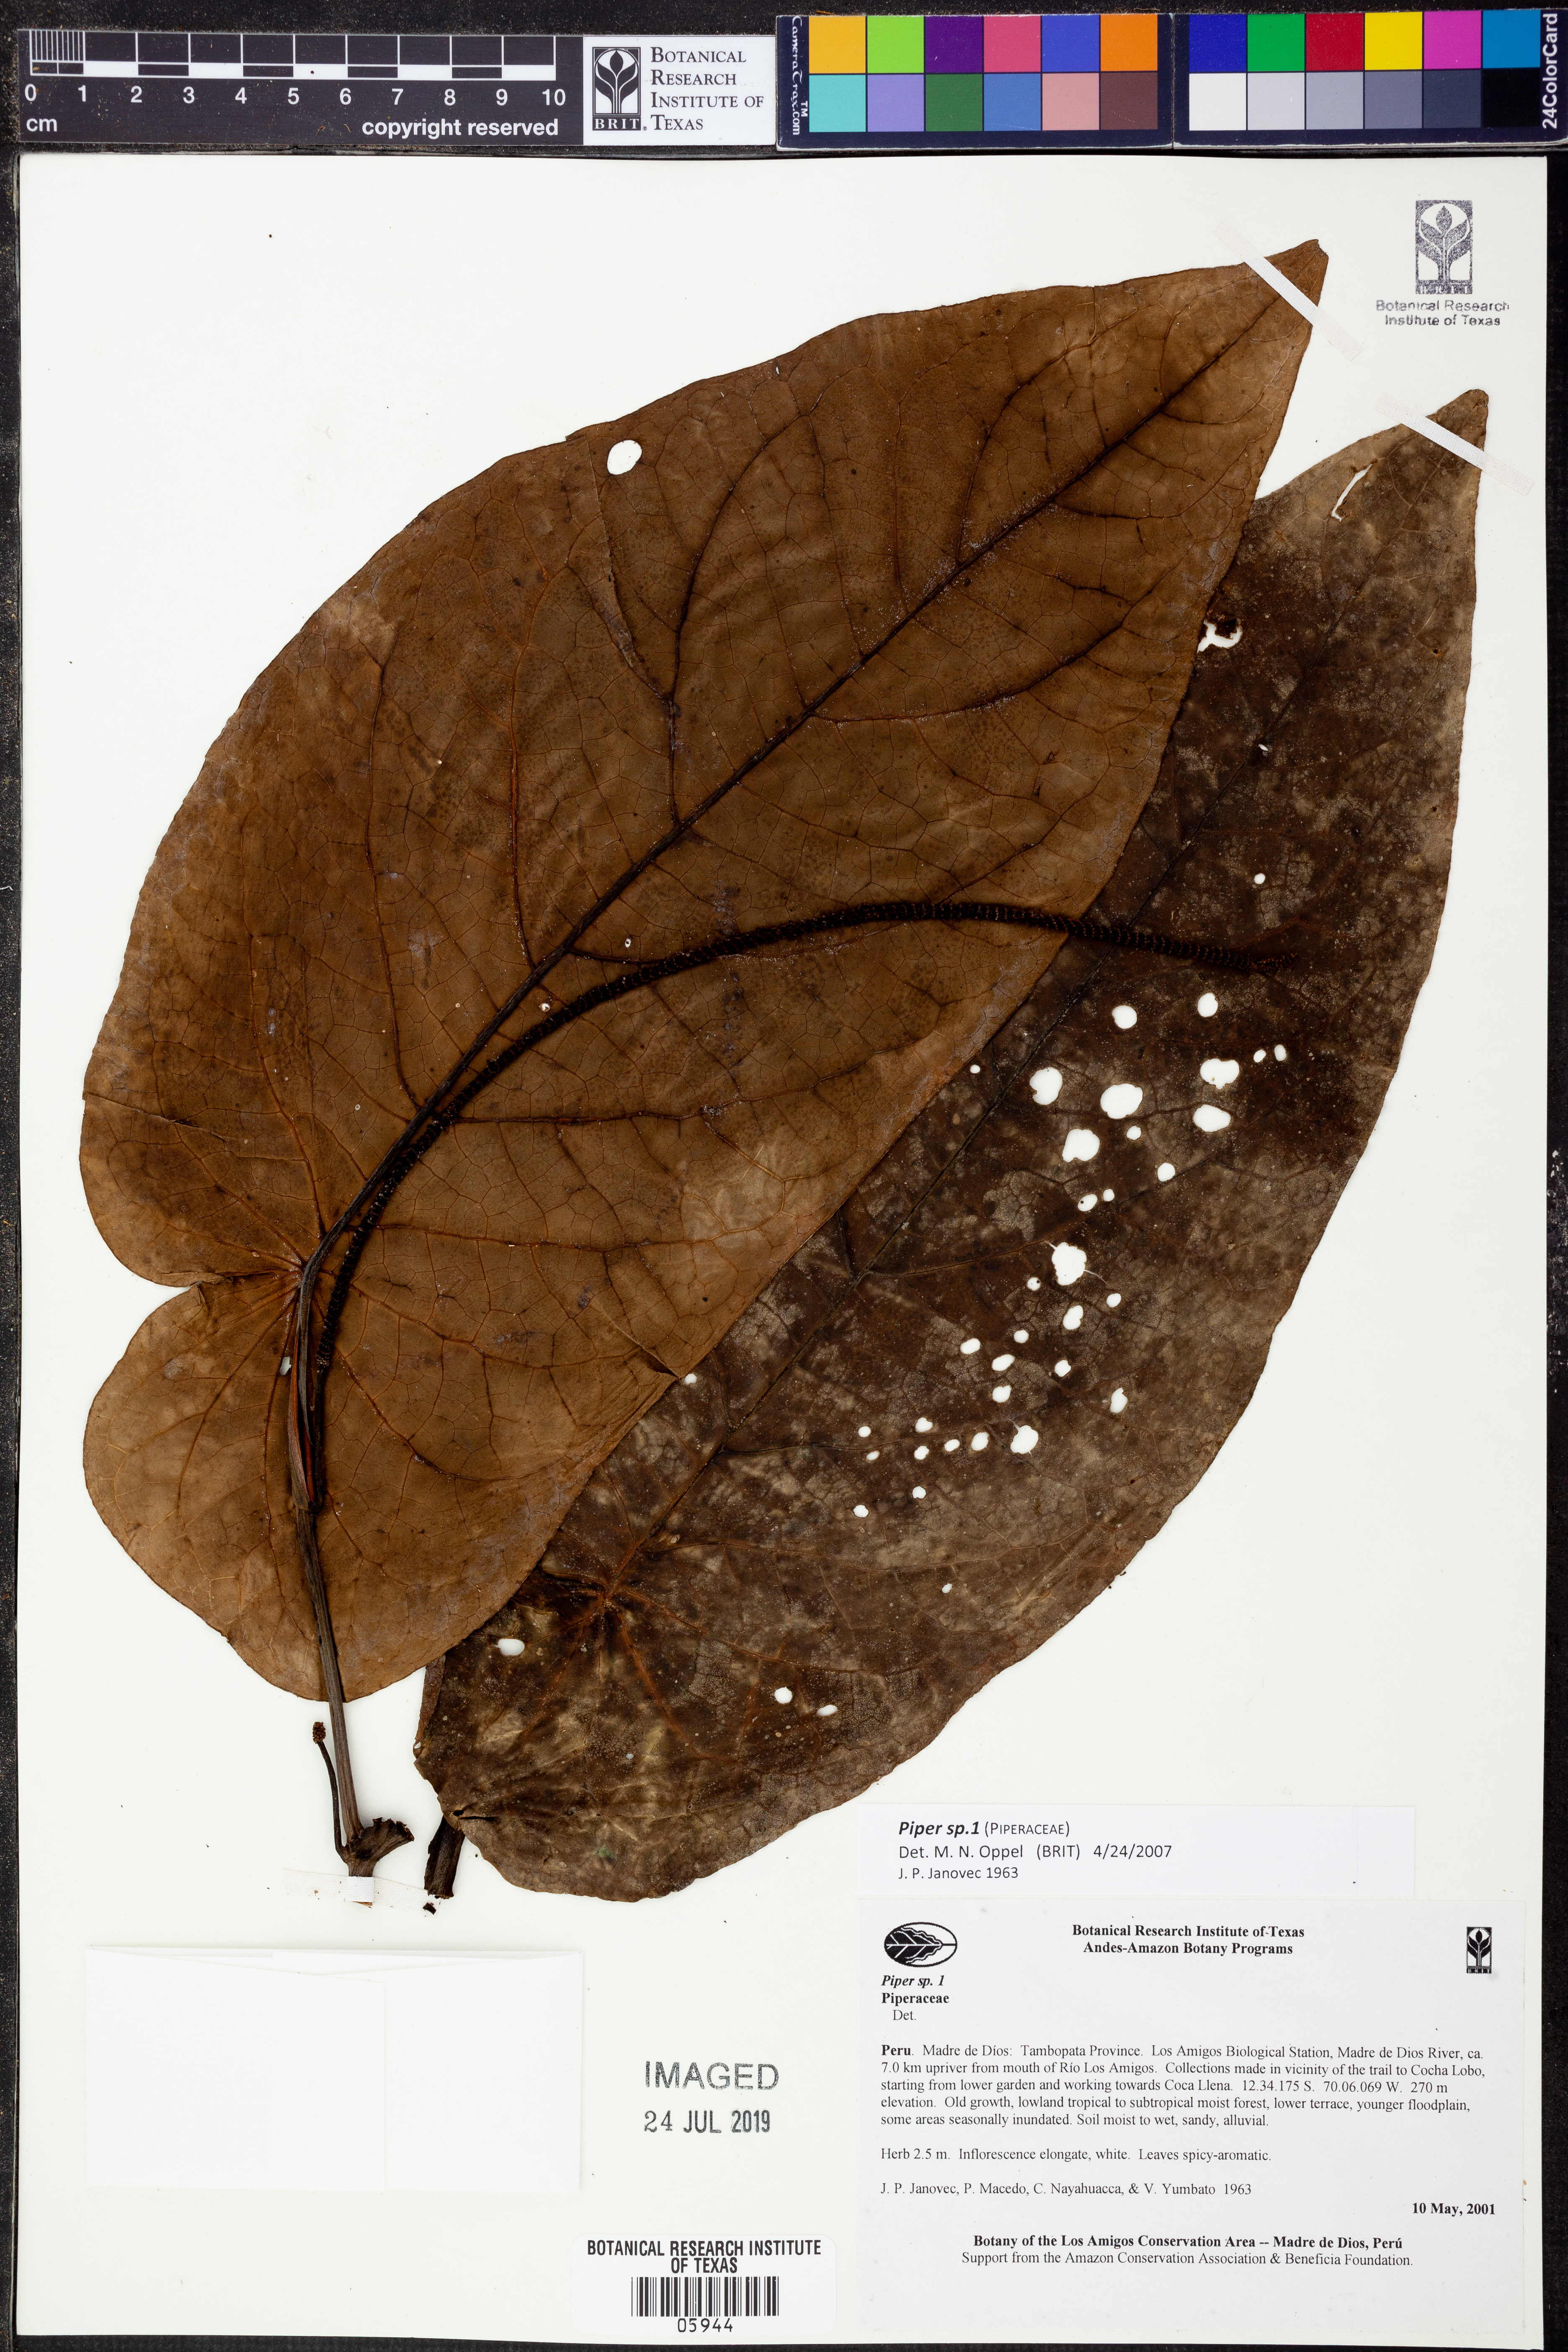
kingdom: Plantae
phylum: Tracheophyta
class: Magnoliopsida
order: Piperales
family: Piperaceae
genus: Piper
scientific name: Piper
